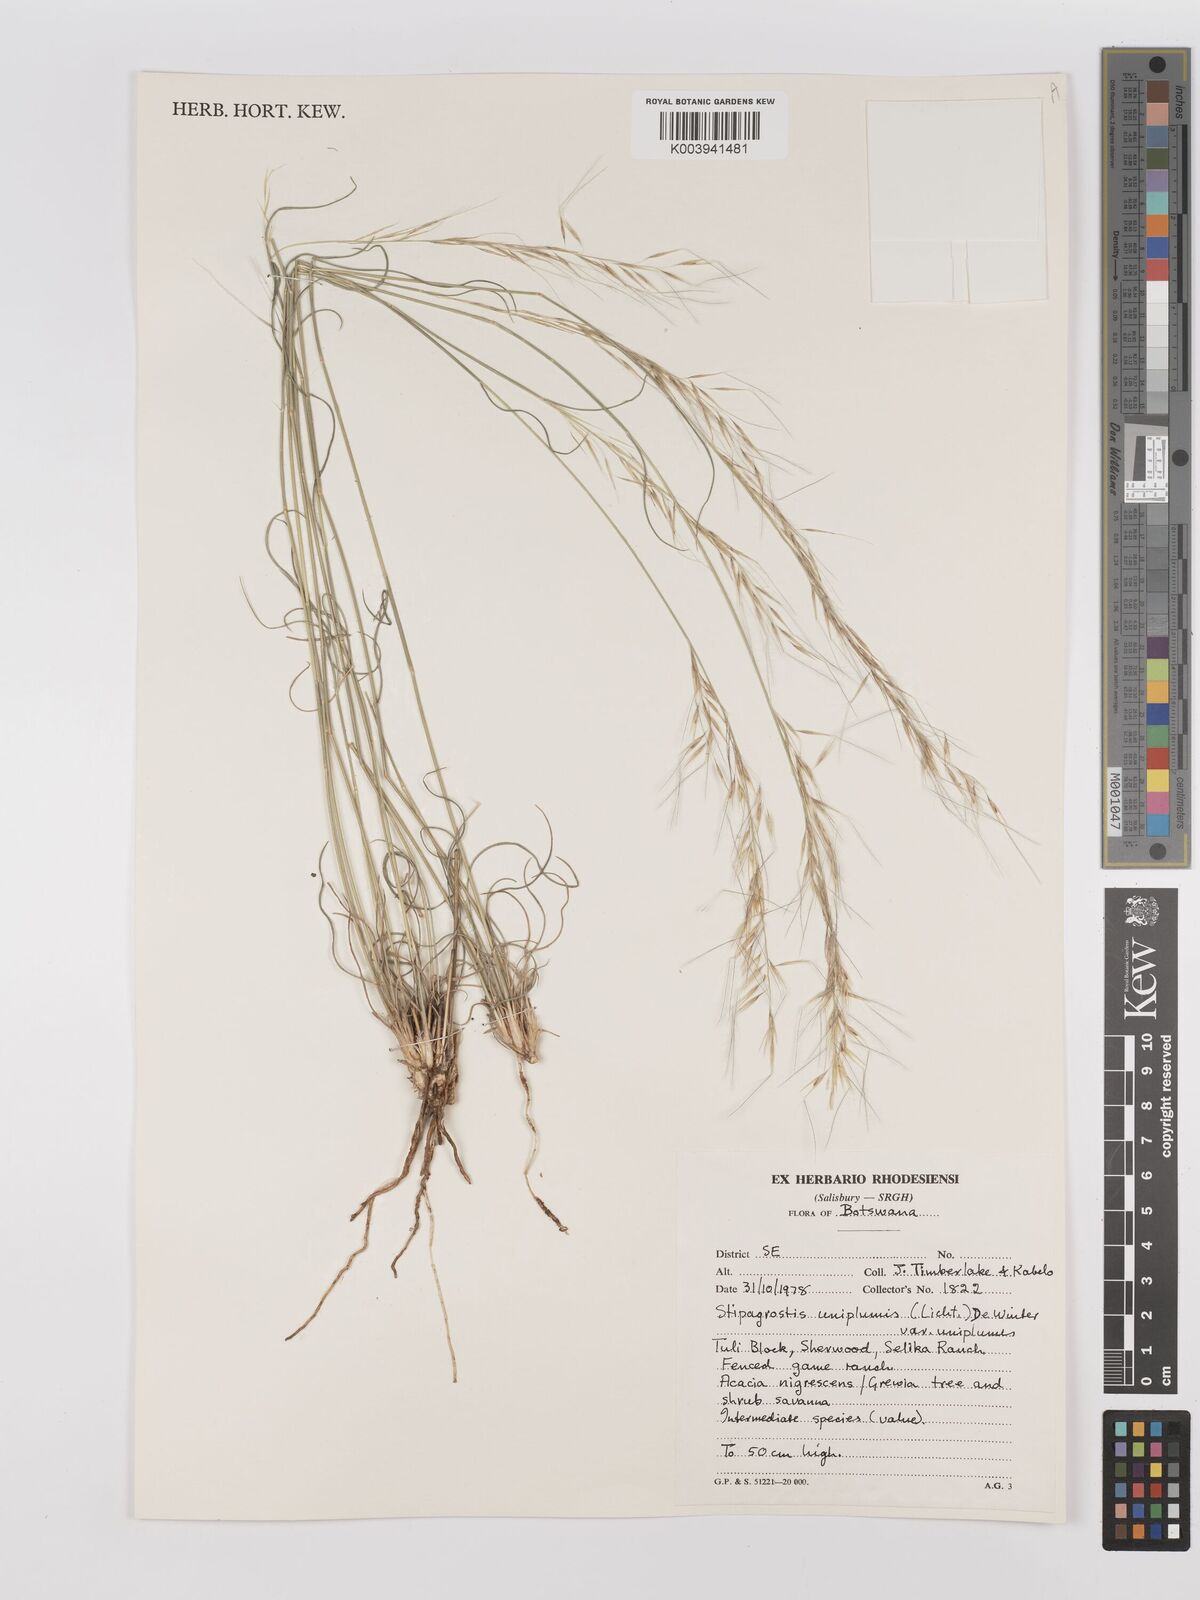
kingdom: Plantae
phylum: Tracheophyta
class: Liliopsida
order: Poales
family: Poaceae
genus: Stipagrostis
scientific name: Stipagrostis uniplumis
